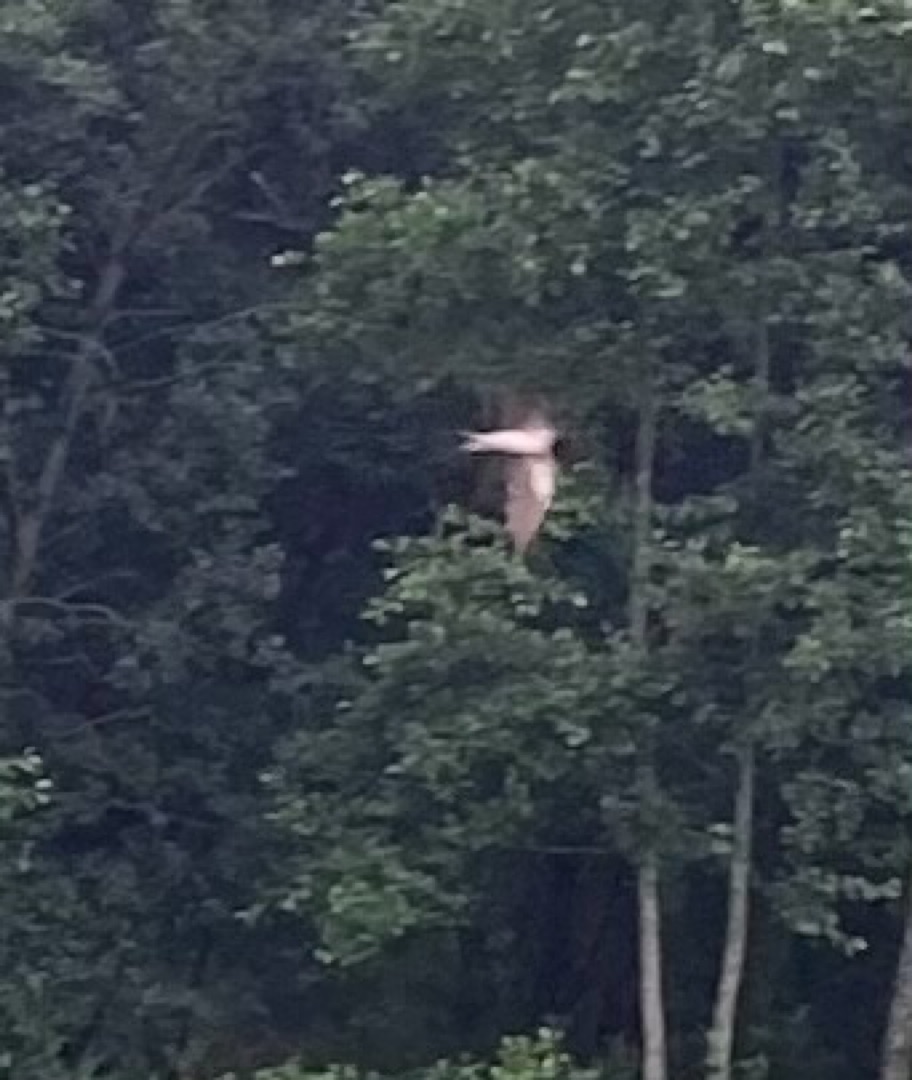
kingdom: Animalia
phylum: Chordata
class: Aves
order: Passeriformes
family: Hirundinidae
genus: Hirundo
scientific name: Hirundo rustica
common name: Landsvale
